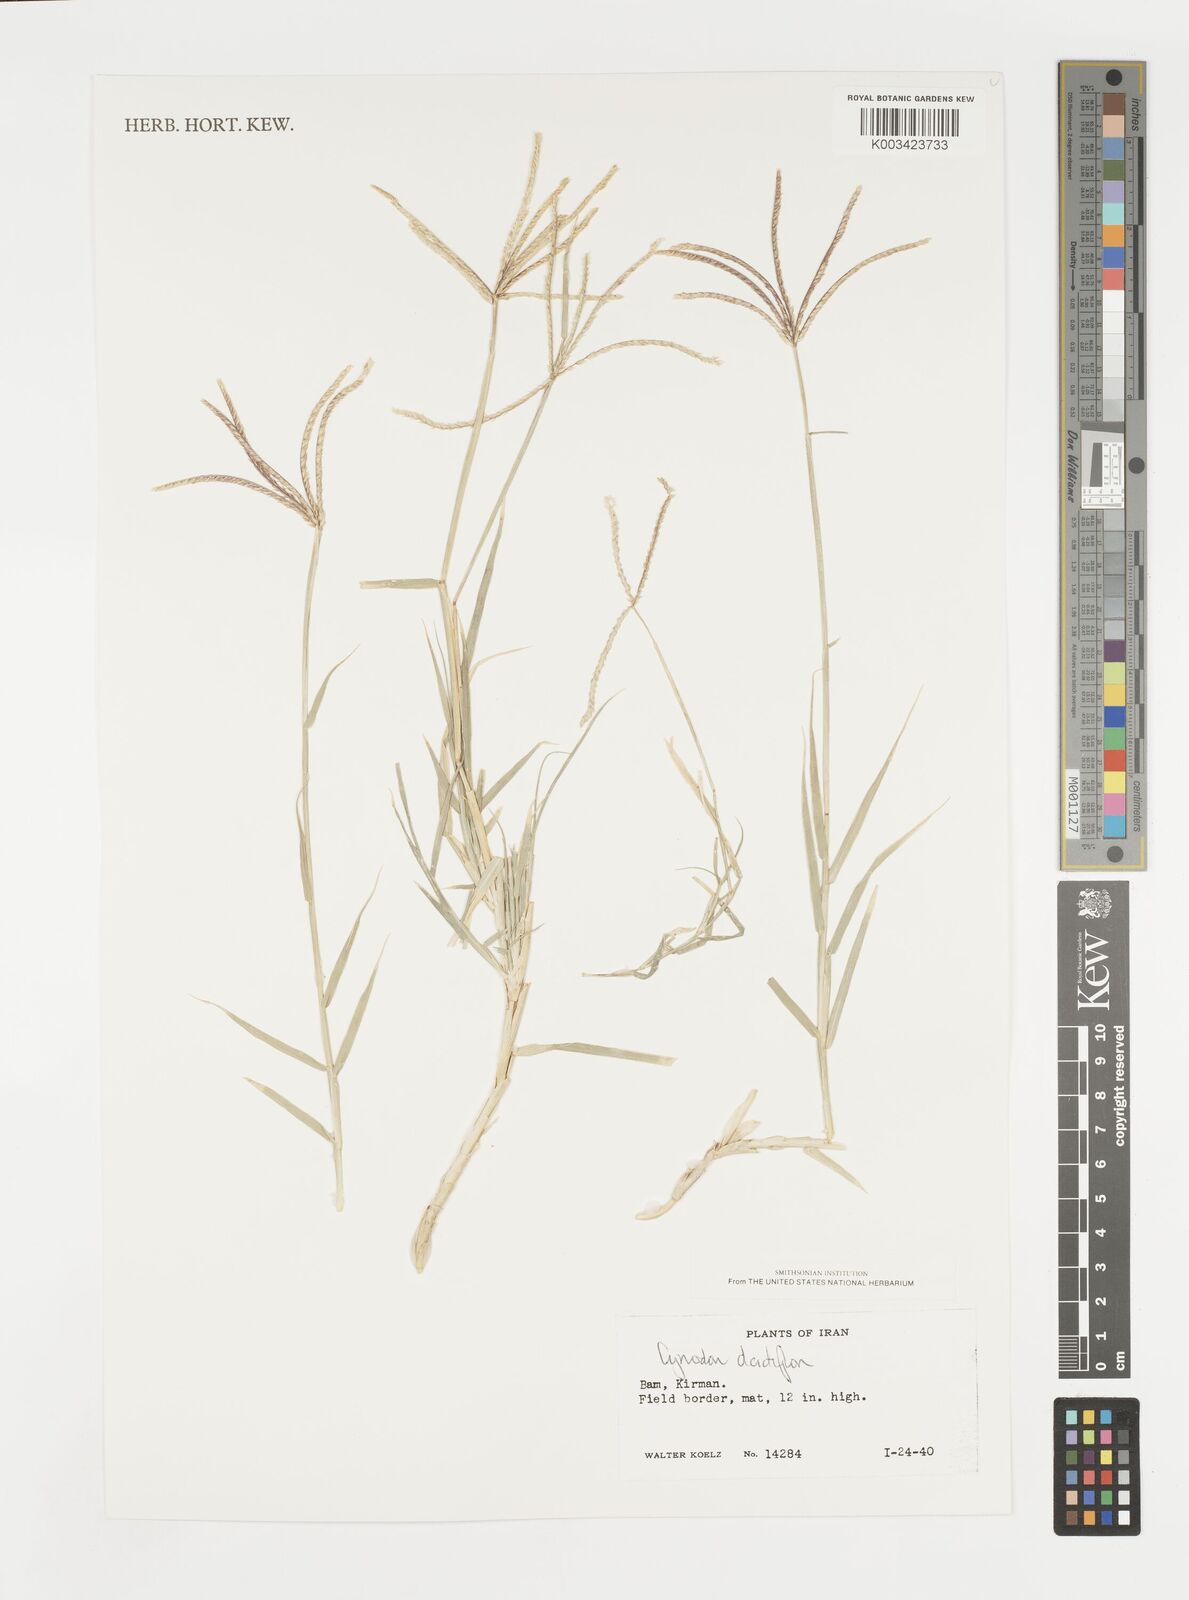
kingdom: Plantae
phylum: Tracheophyta
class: Liliopsida
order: Poales
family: Poaceae
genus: Cynodon
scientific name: Cynodon dactylon
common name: Bermuda grass
